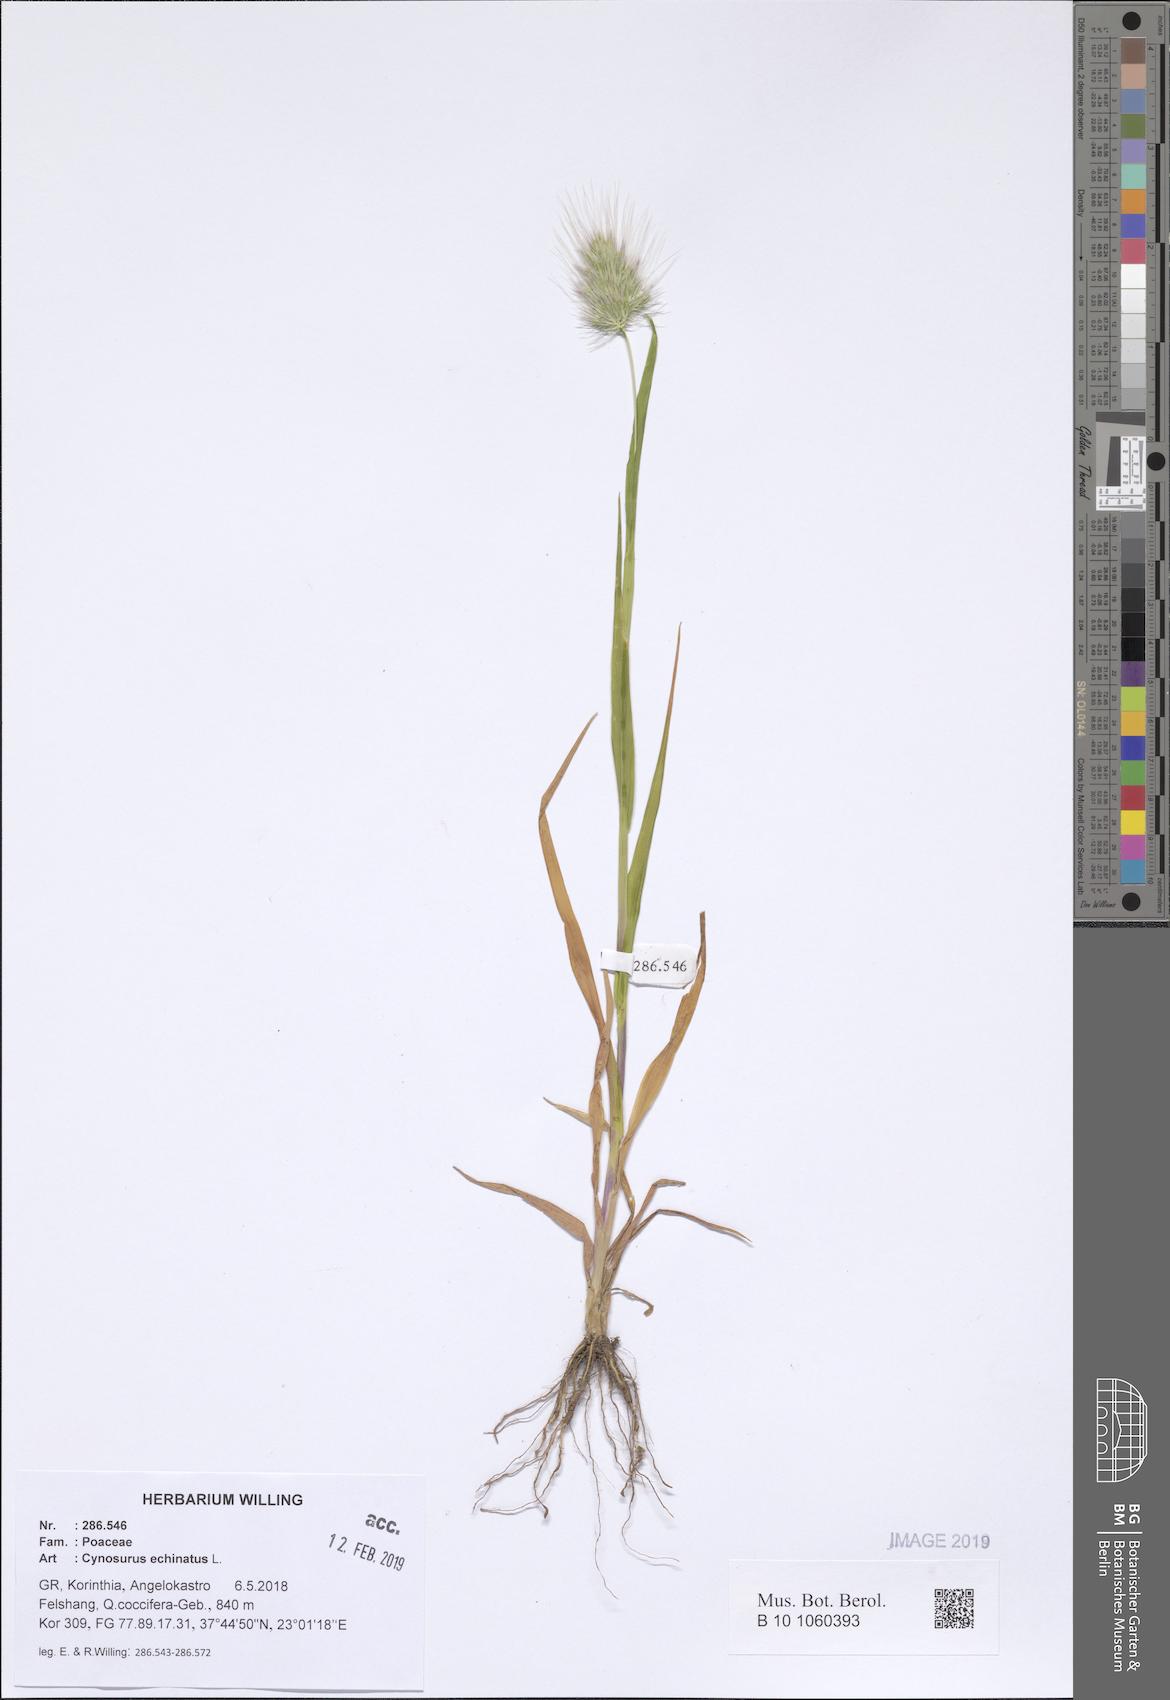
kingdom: Plantae
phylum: Tracheophyta
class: Liliopsida
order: Poales
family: Poaceae
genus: Cynosurus
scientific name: Cynosurus echinatus
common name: Rough dog's-tail
